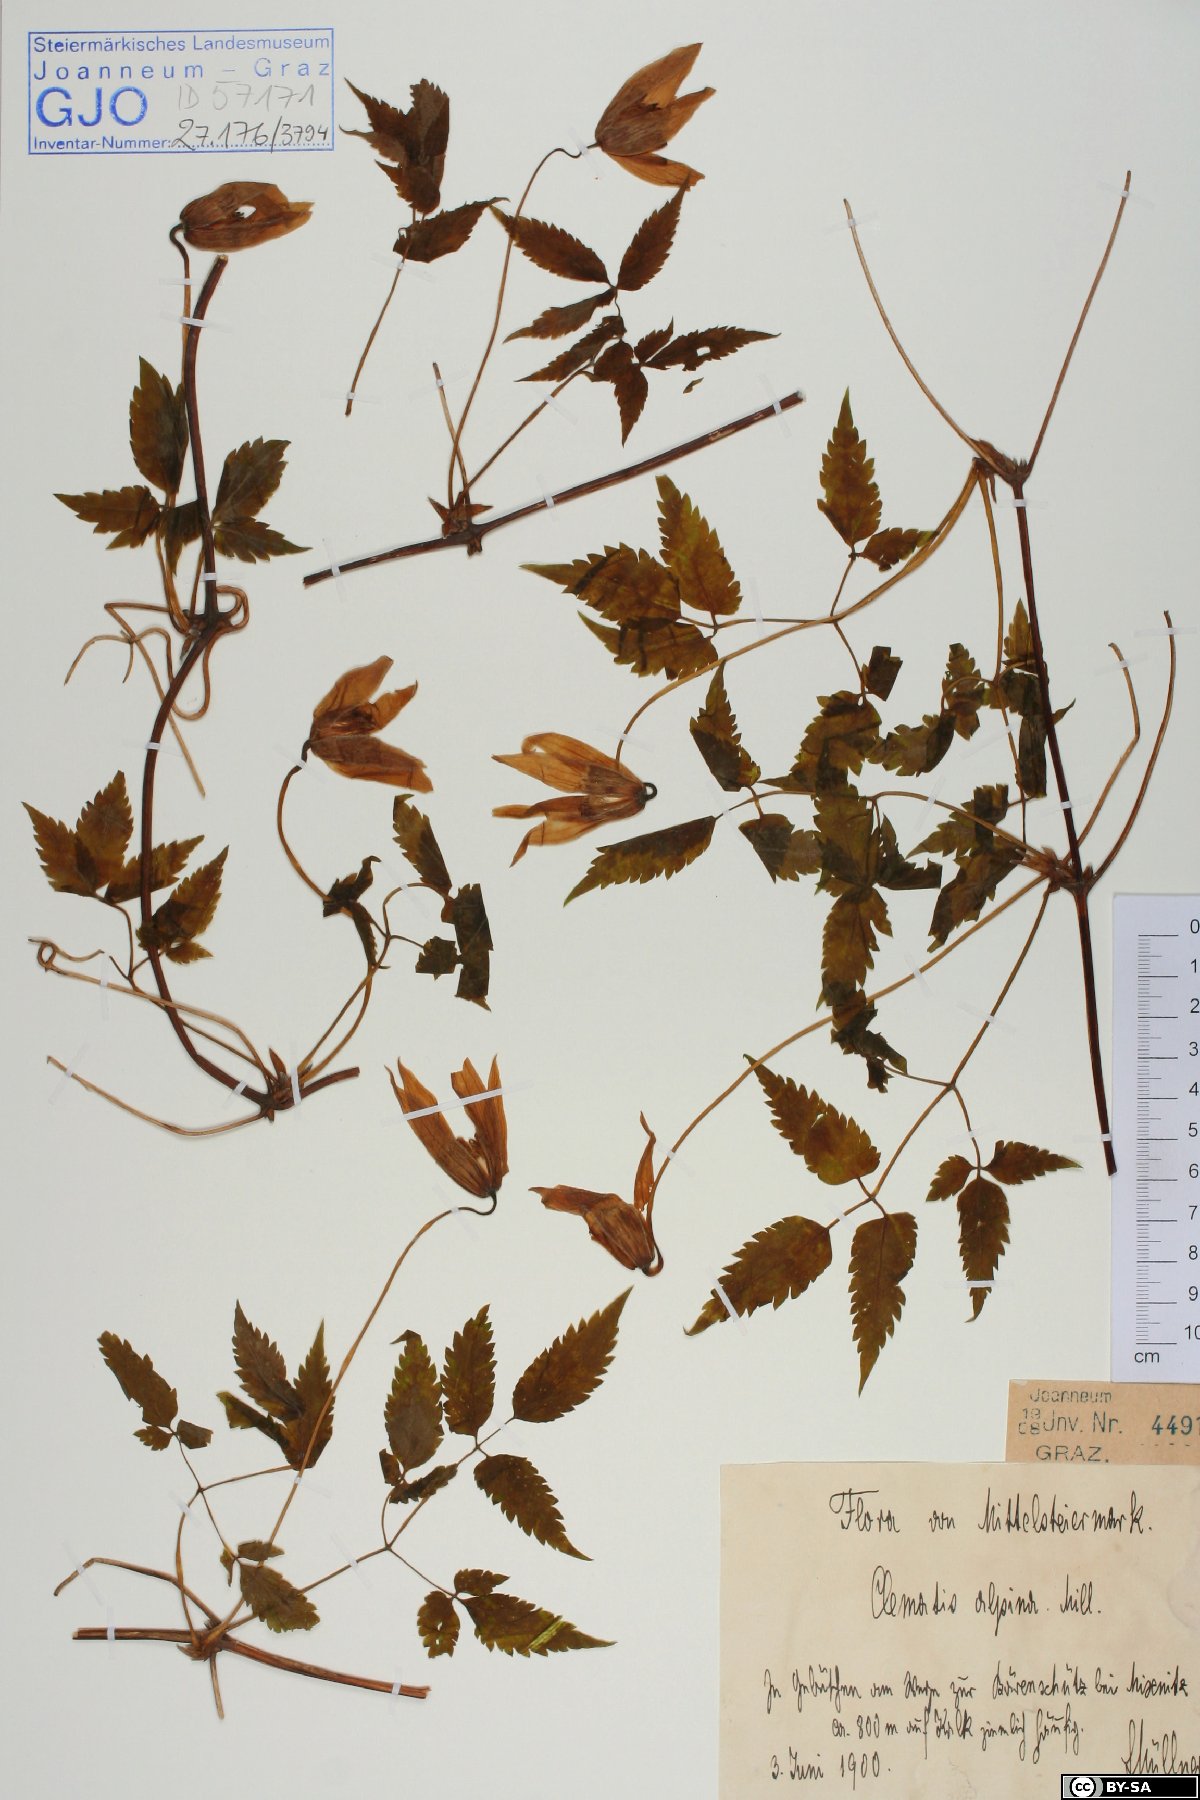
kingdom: Plantae
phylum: Tracheophyta
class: Magnoliopsida
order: Ranunculales
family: Ranunculaceae
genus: Clematis
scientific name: Clematis alpina
